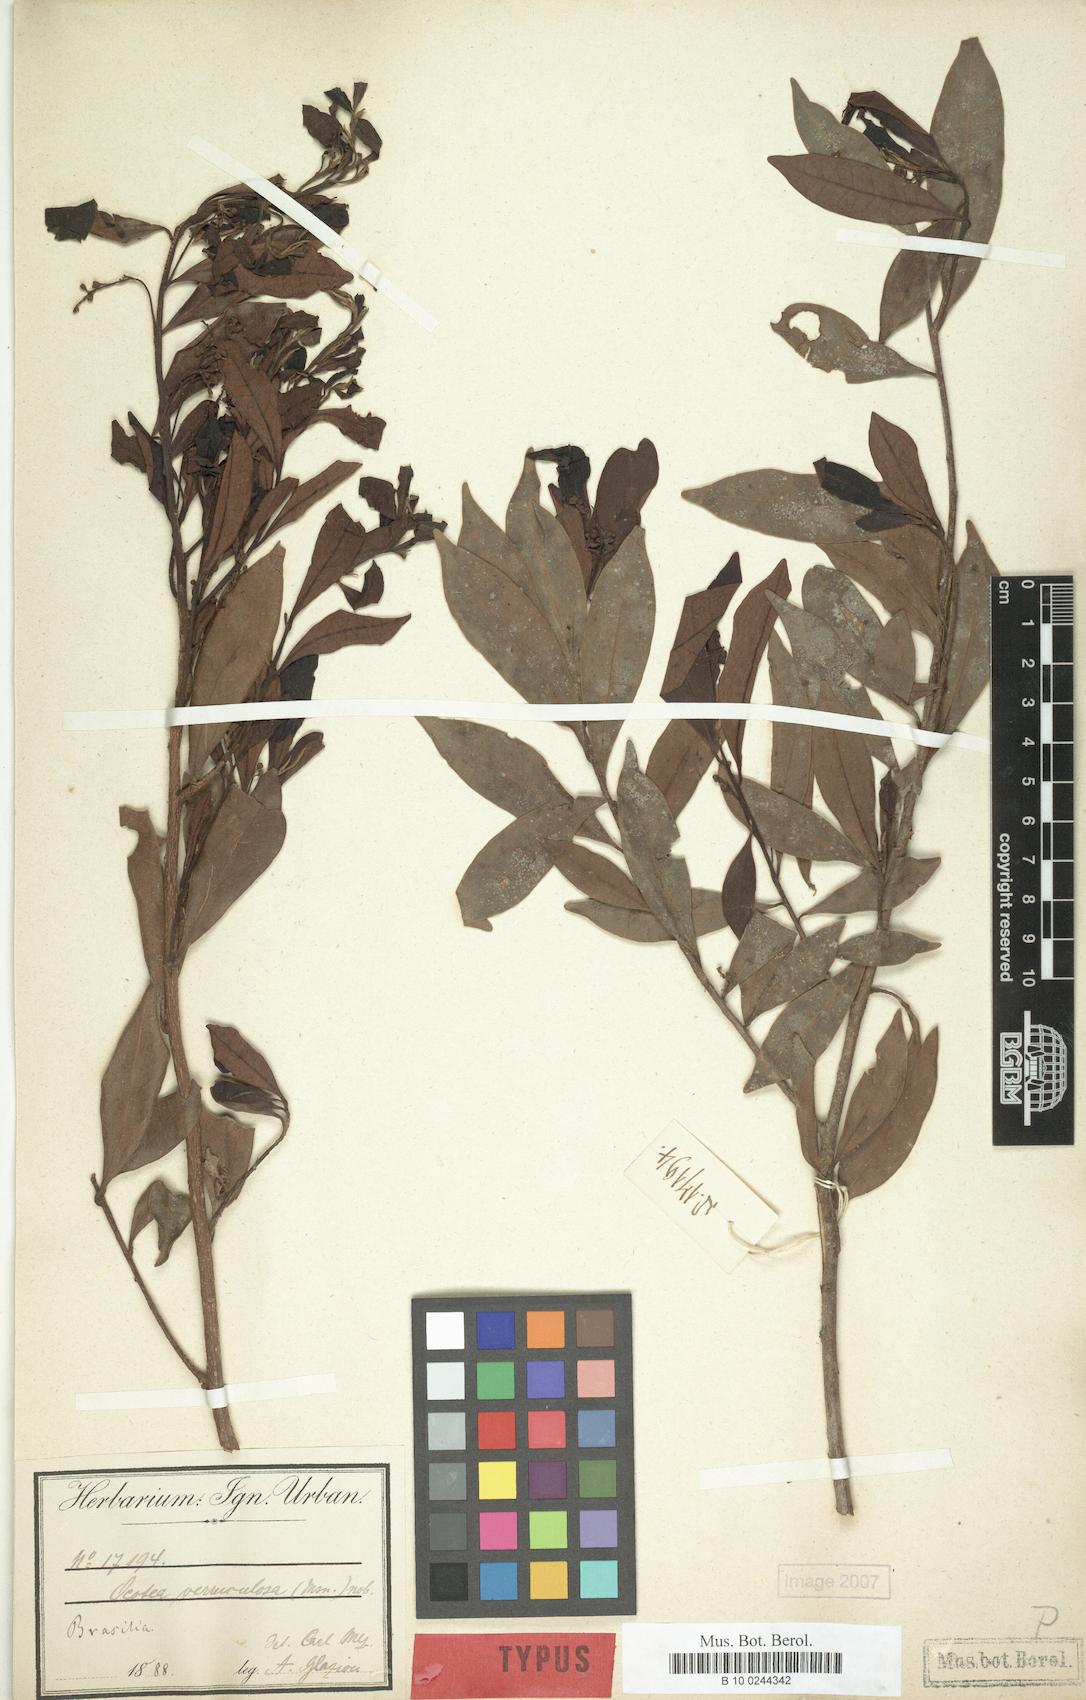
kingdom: Plantae
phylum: Tracheophyta
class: Magnoliopsida
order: Laurales
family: Lauraceae
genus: Ocotea
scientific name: Ocotea daphnifolia
